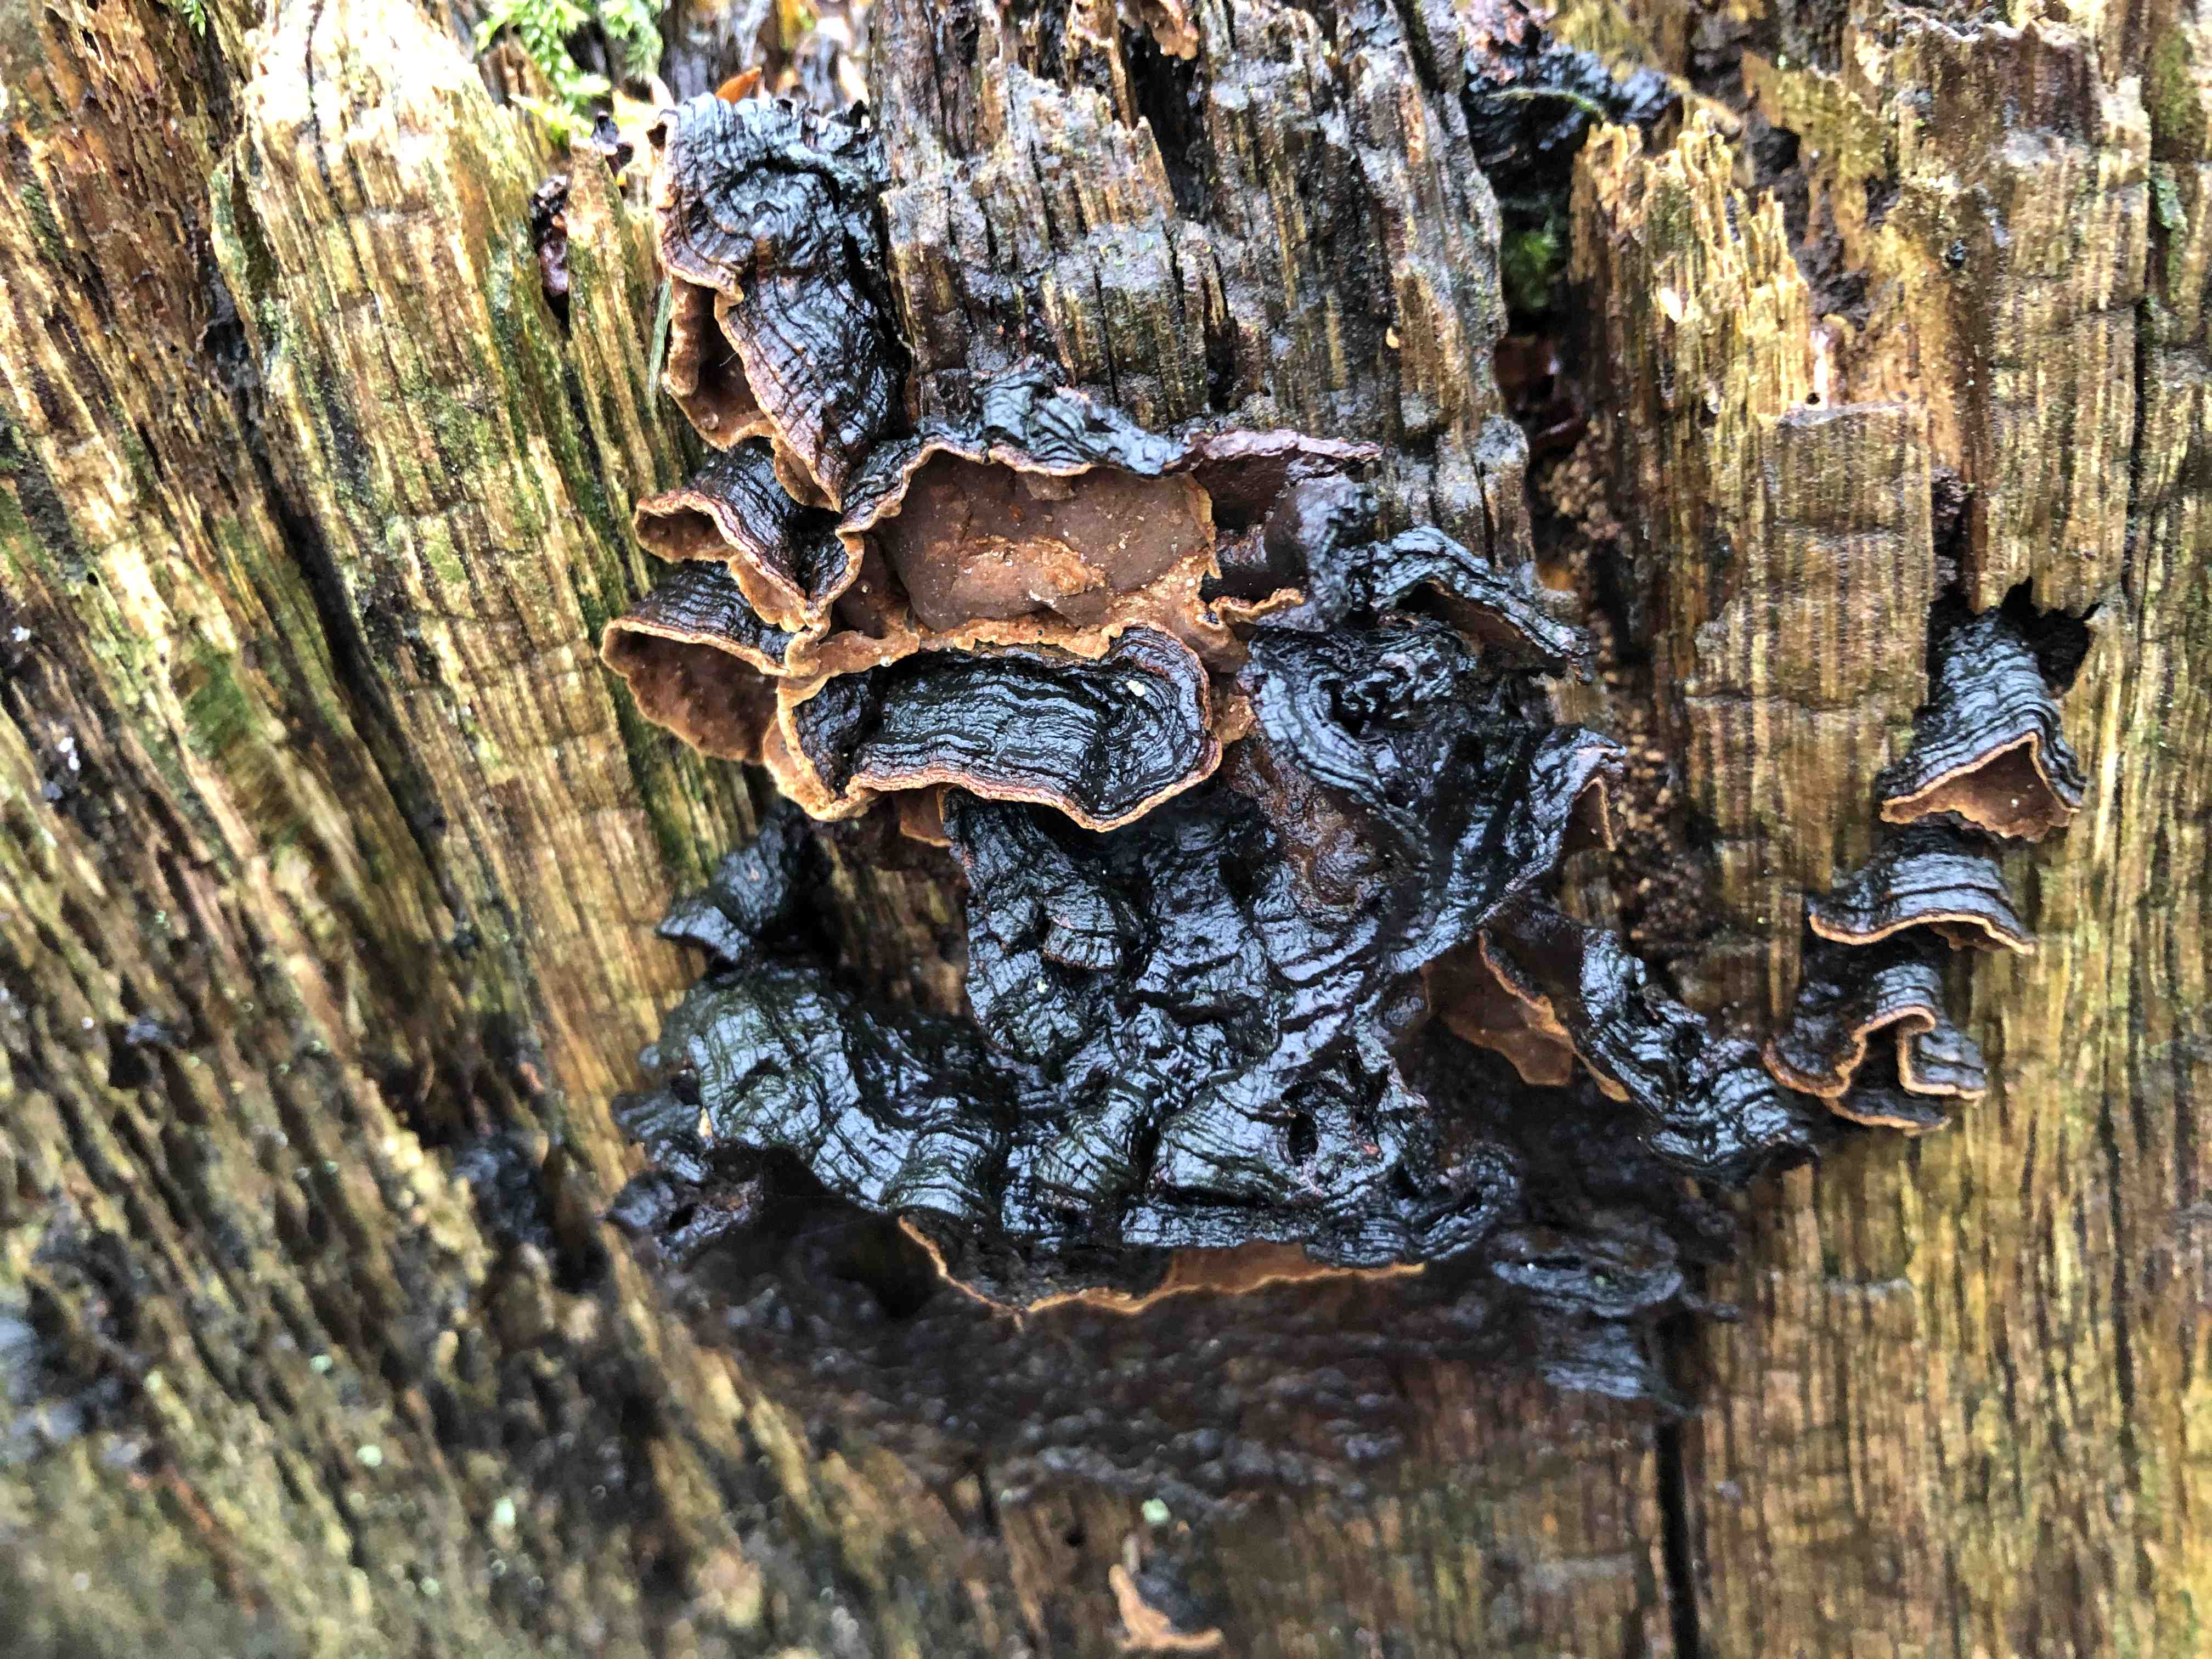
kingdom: Fungi
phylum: Basidiomycota
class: Agaricomycetes
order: Hymenochaetales
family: Hymenochaetaceae
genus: Hymenochaete
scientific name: Hymenochaete rubiginosa
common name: stiv ruslædersvamp
